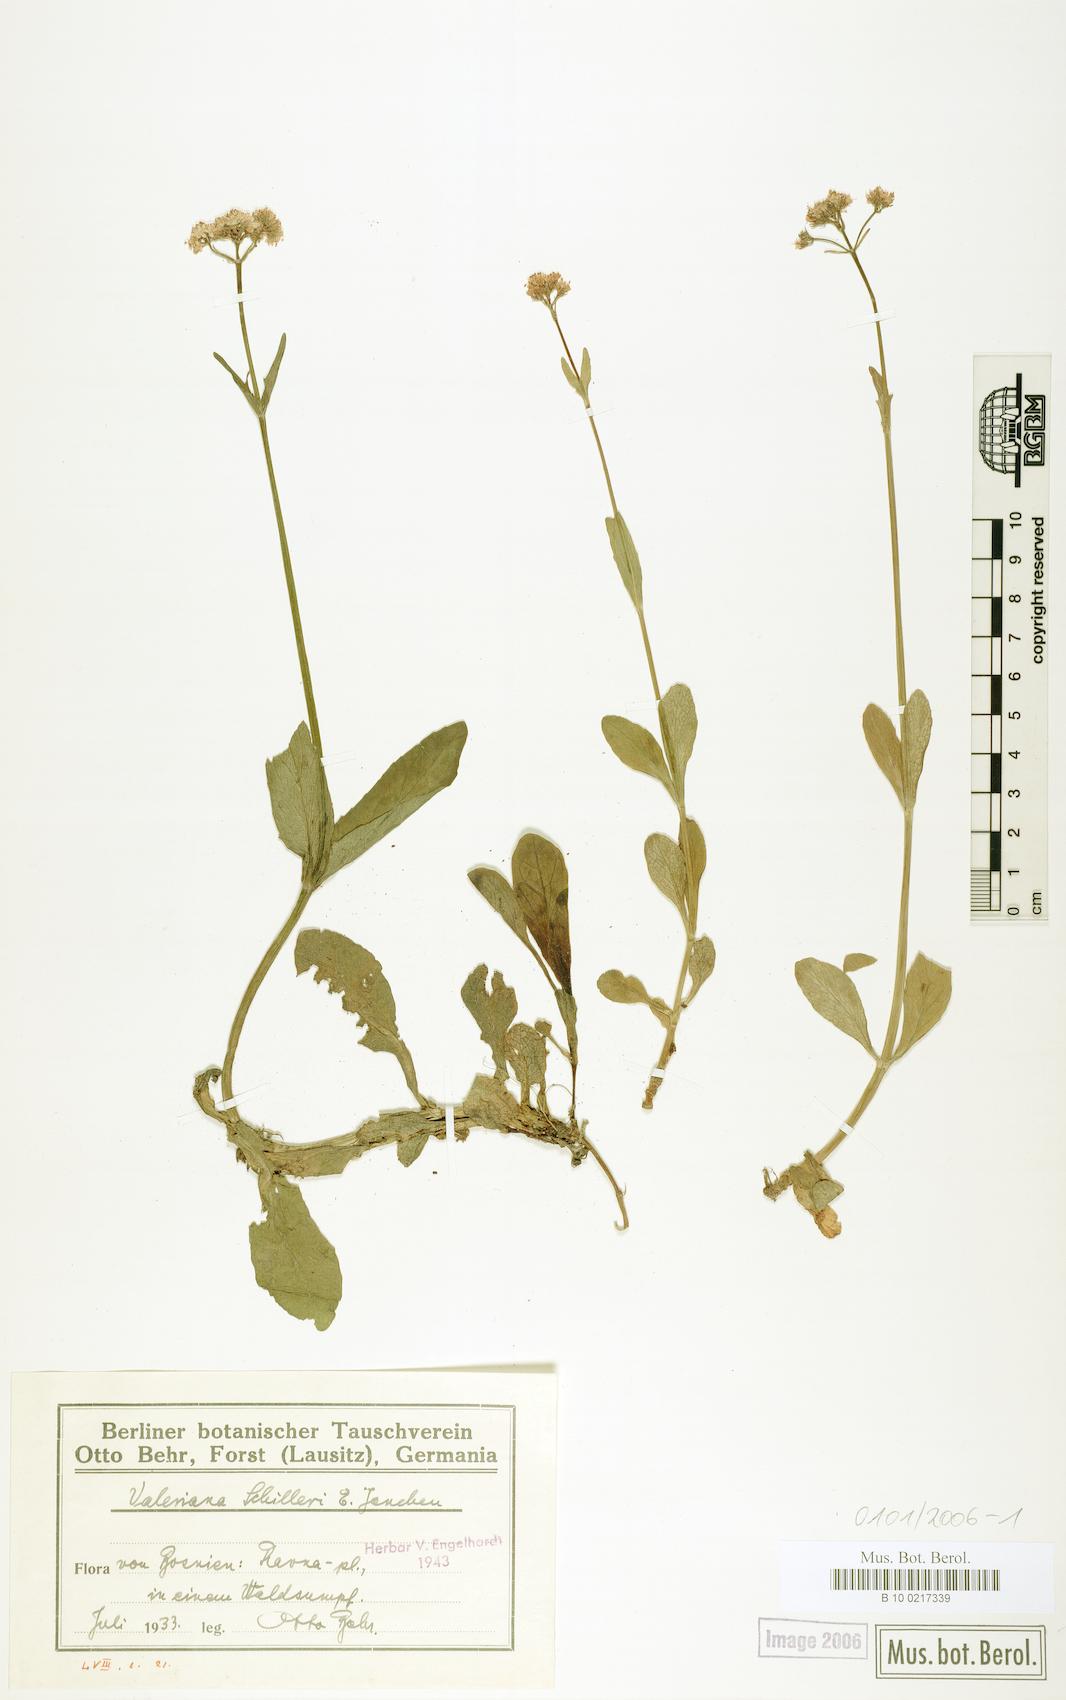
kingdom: Plantae
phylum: Tracheophyta
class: Magnoliopsida
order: Dipsacales
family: Caprifoliaceae
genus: Valeriana
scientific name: Valeriana dioica
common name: Marsh valerian
